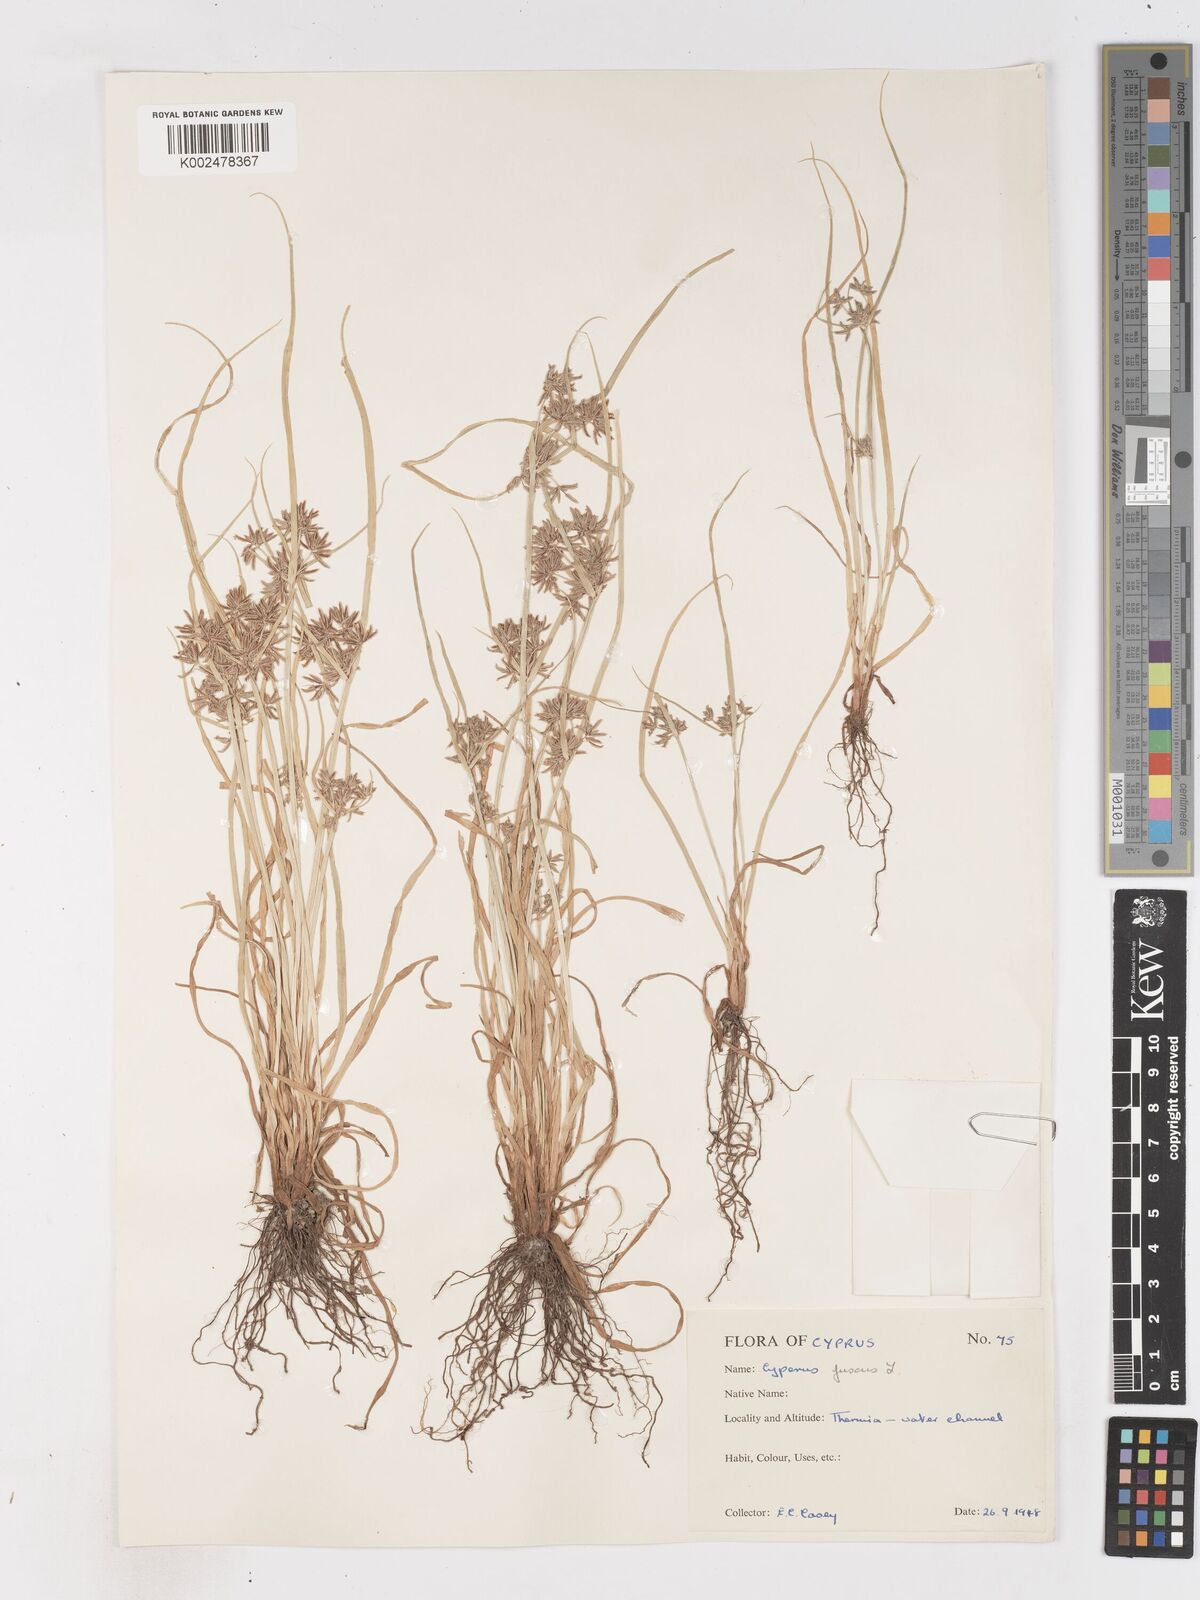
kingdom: Plantae
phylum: Tracheophyta
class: Liliopsida
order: Poales
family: Cyperaceae
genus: Cyperus
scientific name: Cyperus fuscus
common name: Brown galingale
